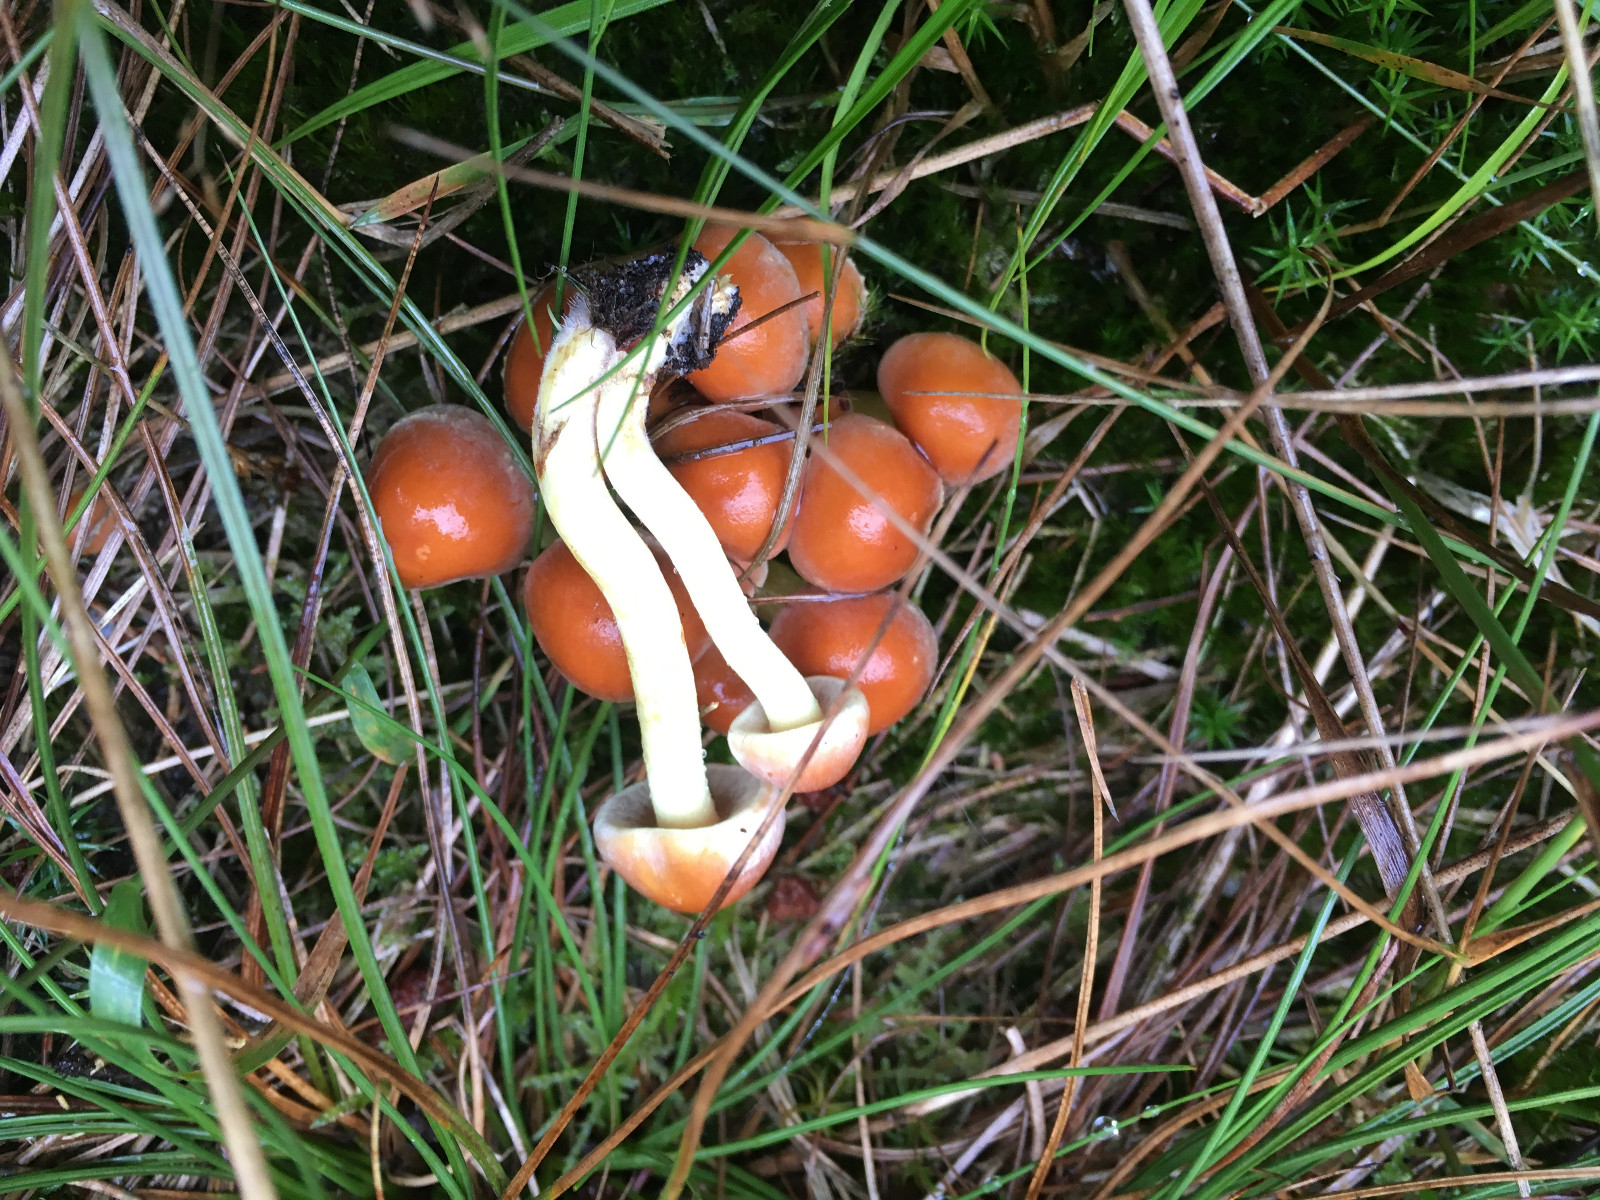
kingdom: Fungi
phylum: Basidiomycota
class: Agaricomycetes
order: Agaricales
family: Strophariaceae
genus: Hypholoma
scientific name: Hypholoma fasciculare
